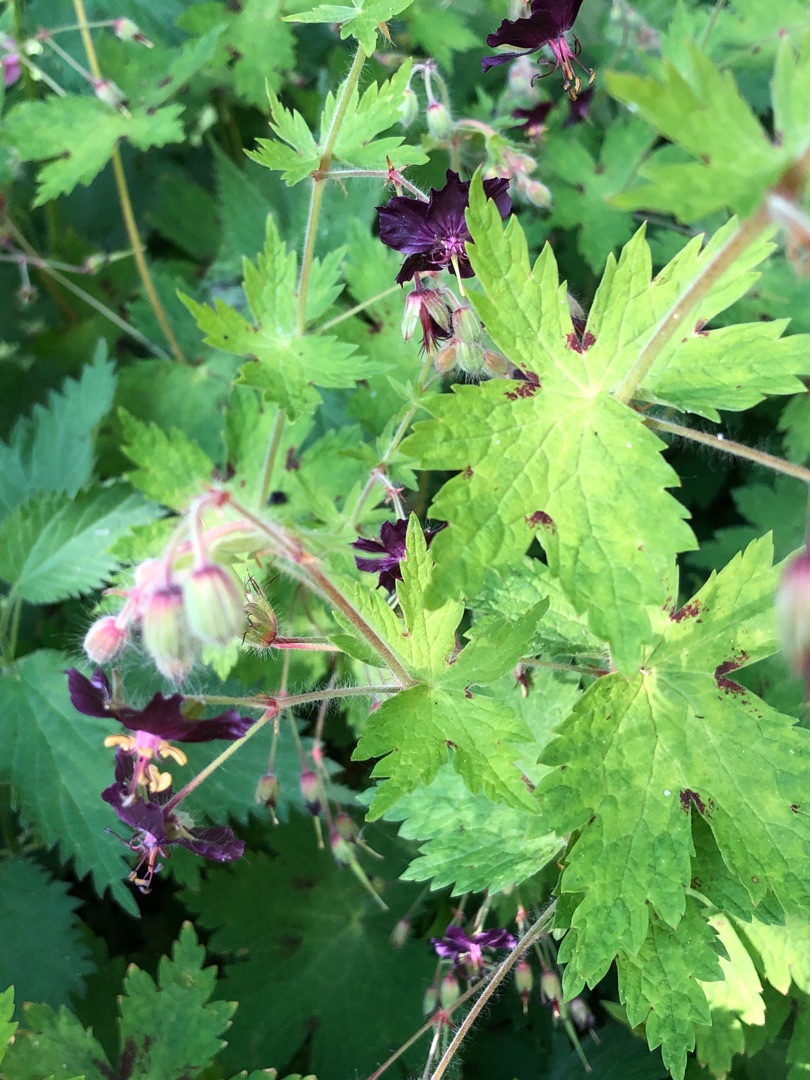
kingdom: Plantae
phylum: Tracheophyta
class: Magnoliopsida
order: Geraniales
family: Geraniaceae
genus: Geranium
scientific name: Geranium phaeum
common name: Bølgekronet storkenæb
